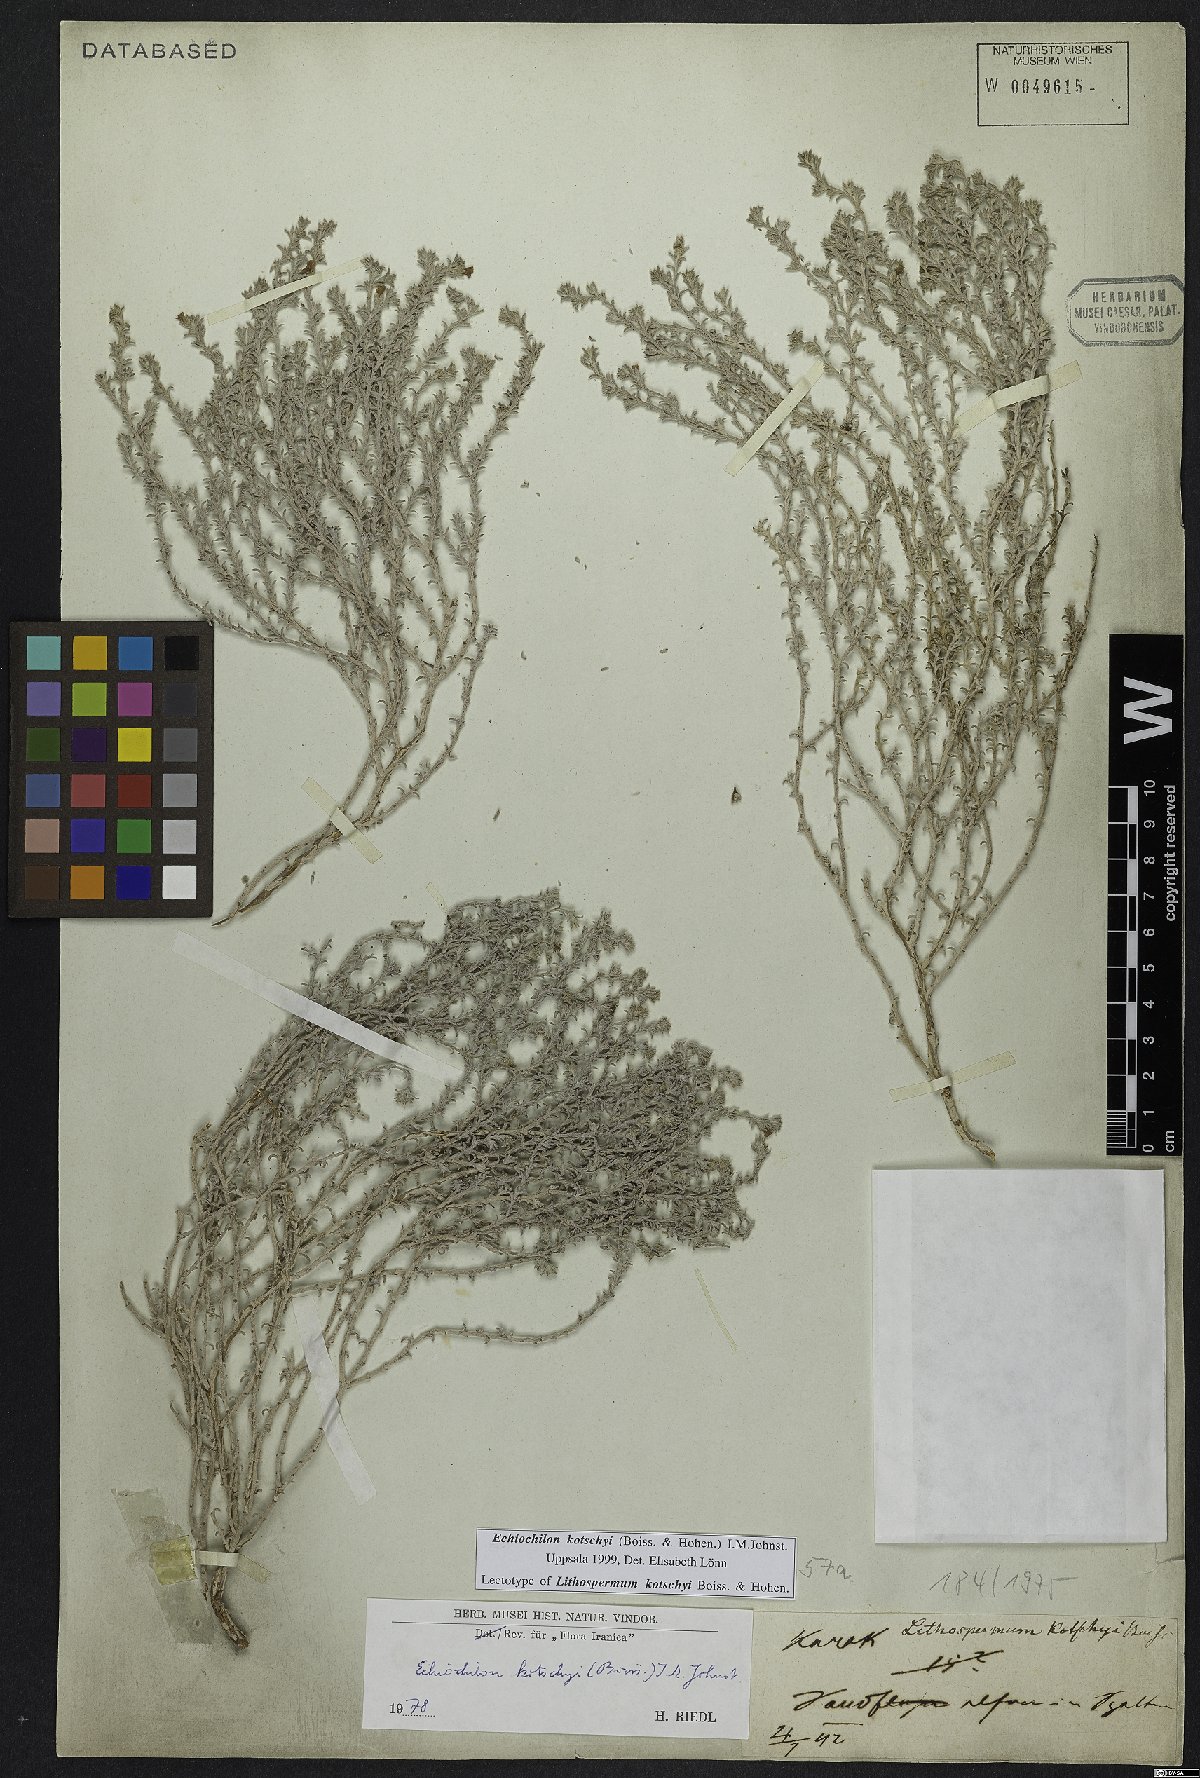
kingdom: Plantae
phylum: Tracheophyta
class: Magnoliopsida
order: Boraginales
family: Boraginaceae
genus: Echiochilon
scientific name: Echiochilon kotschyi
